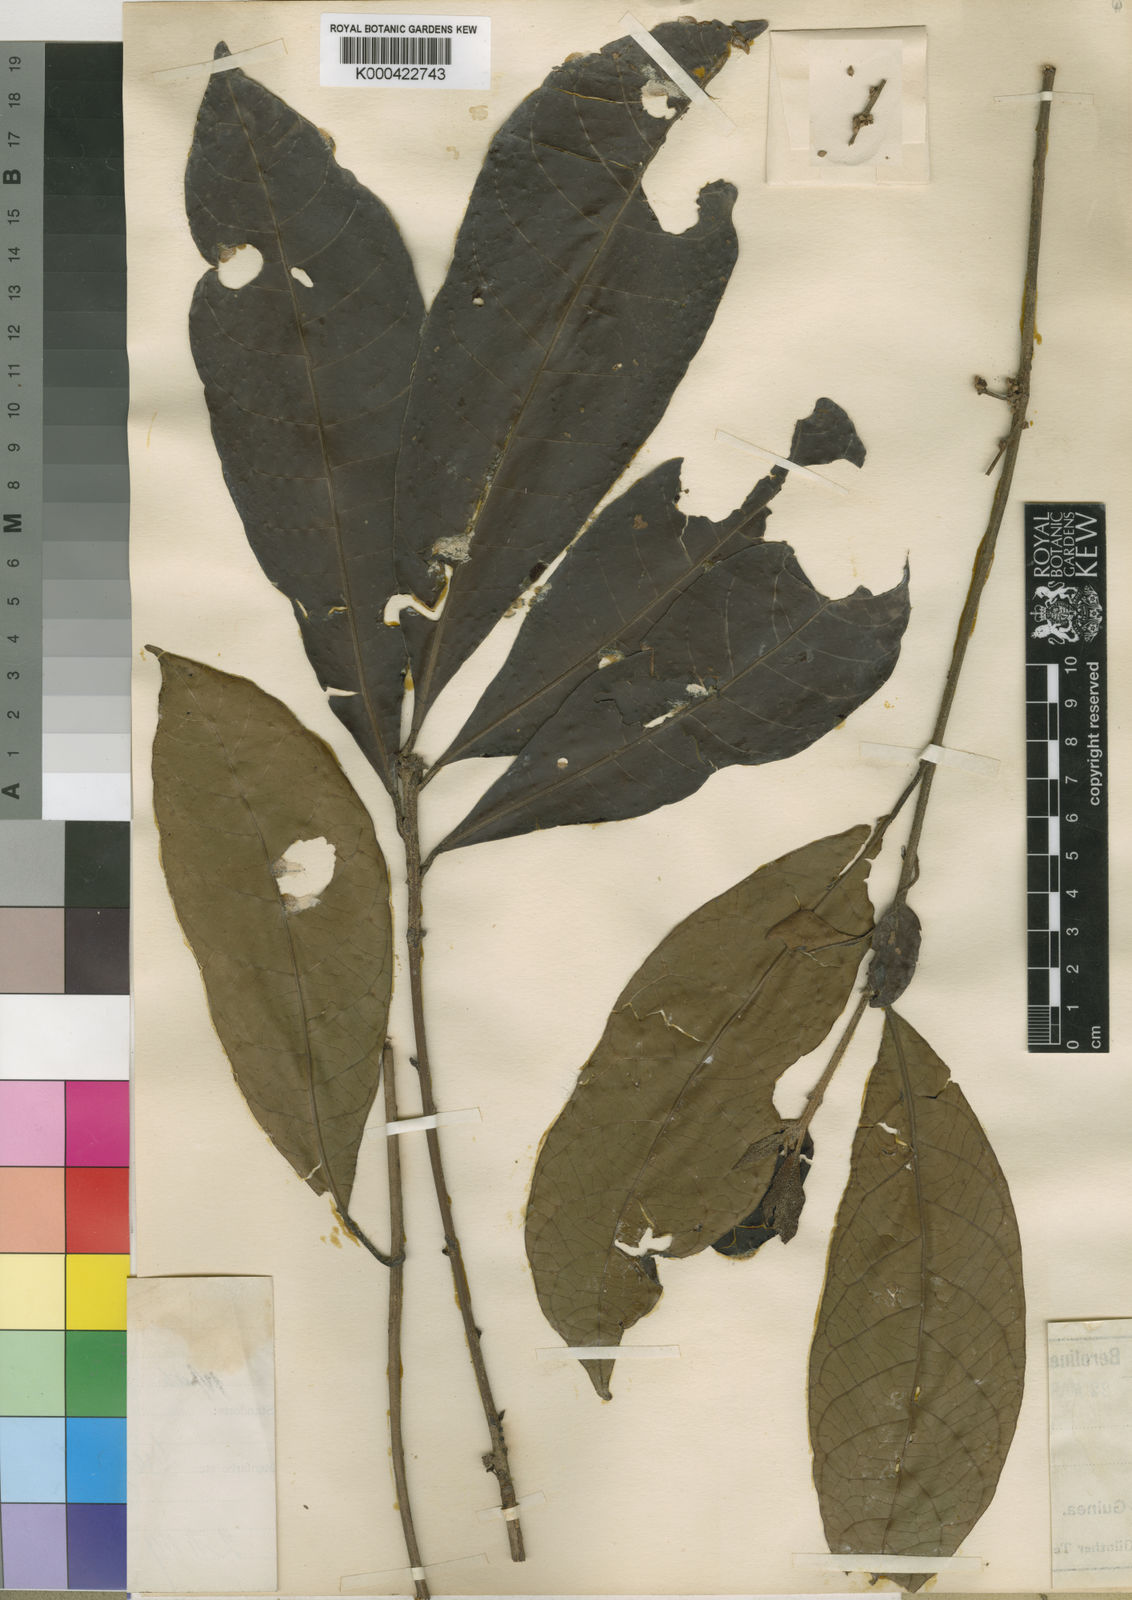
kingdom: Plantae
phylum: Tracheophyta
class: Magnoliopsida
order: Malpighiales
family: Euphorbiaceae
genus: Crotonogyne
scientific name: Crotonogyne gabunensis
